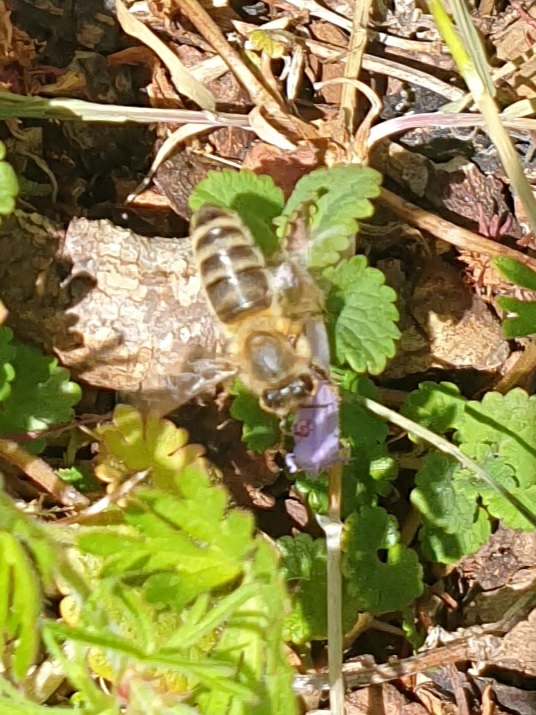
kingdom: Animalia
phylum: Arthropoda
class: Insecta
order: Hymenoptera
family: Apidae
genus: Apis
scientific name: Apis mellifera
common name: Honningbi
